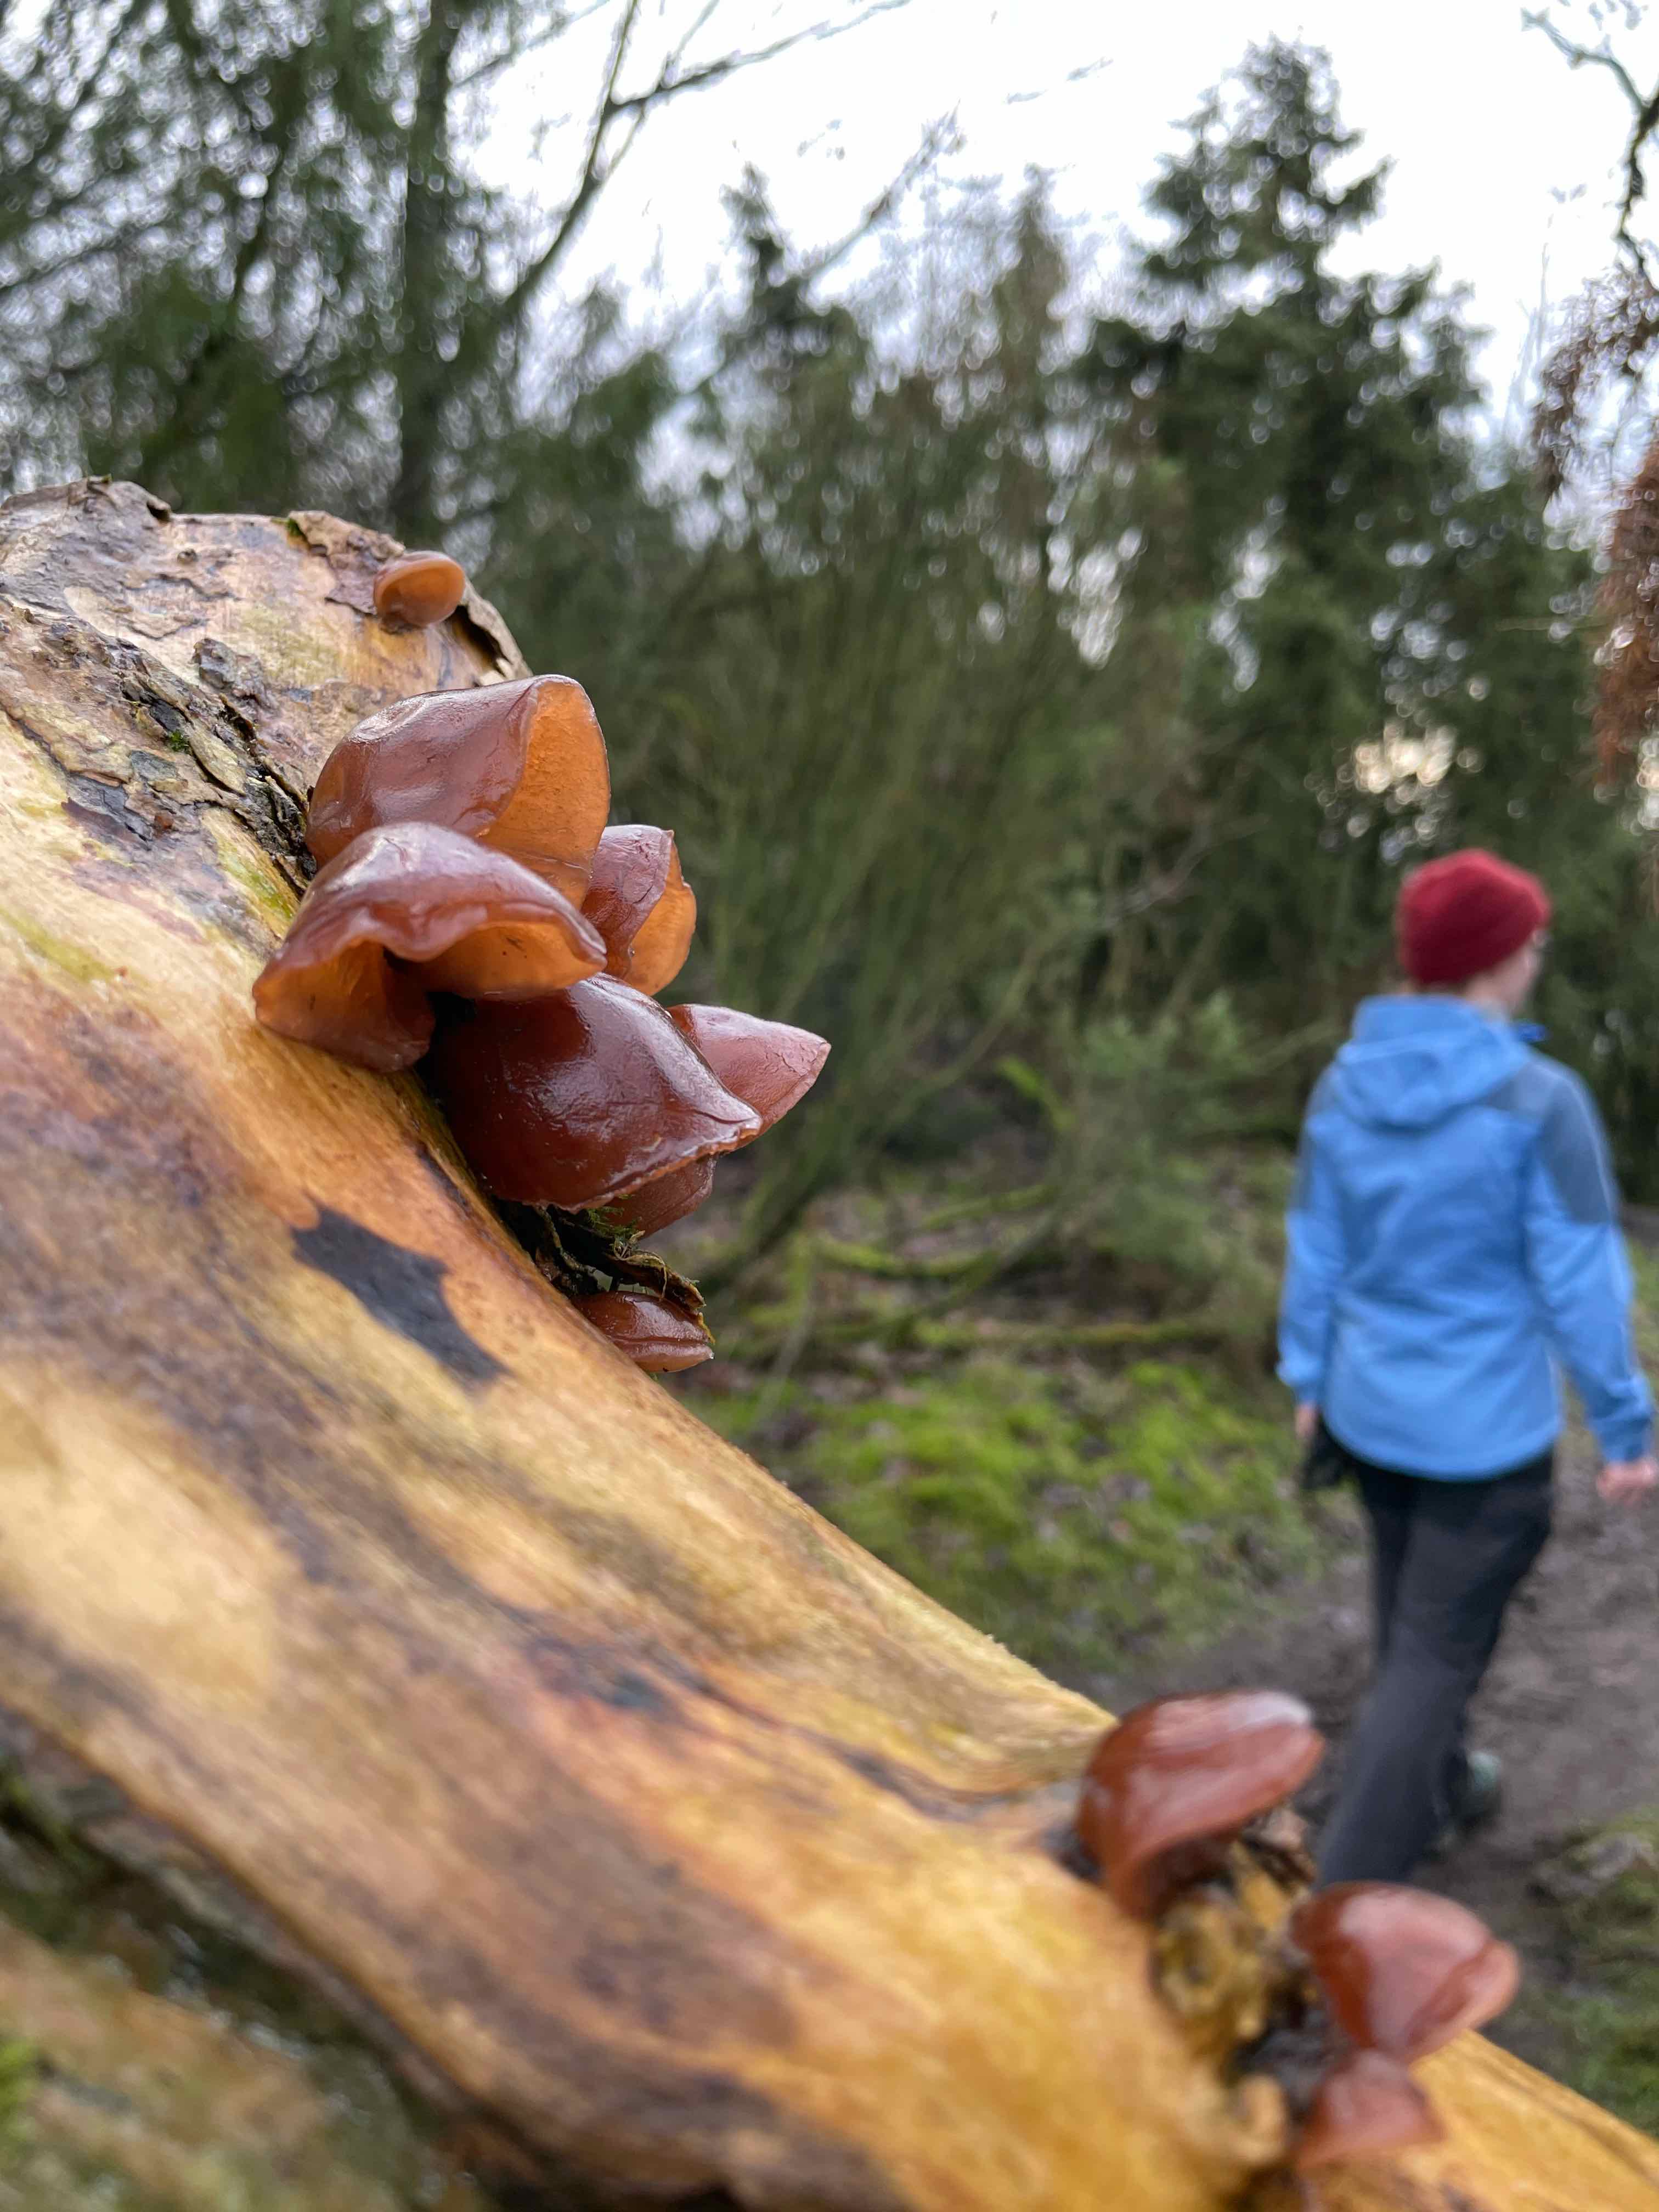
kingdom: Fungi
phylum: Basidiomycota
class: Agaricomycetes
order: Auriculariales
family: Auriculariaceae
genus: Auricularia
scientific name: Auricularia auricula-judae
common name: almindelig judasøre
